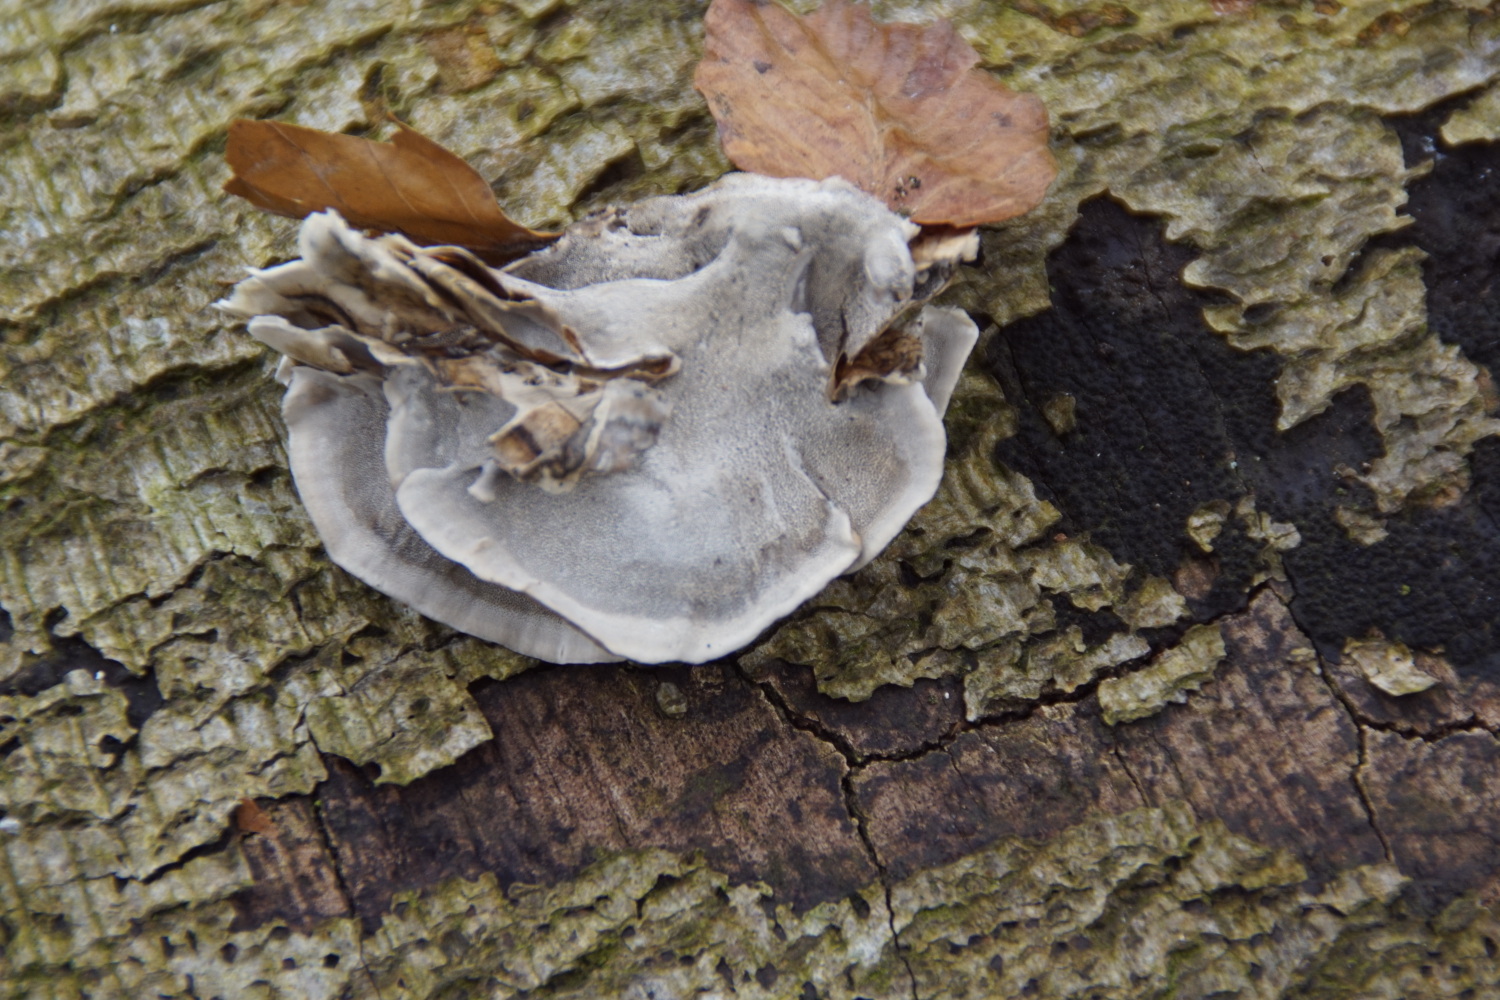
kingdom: Fungi
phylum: Basidiomycota
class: Agaricomycetes
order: Polyporales
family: Phanerochaetaceae
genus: Bjerkandera
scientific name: Bjerkandera adusta
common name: sveden sodporesvamp
